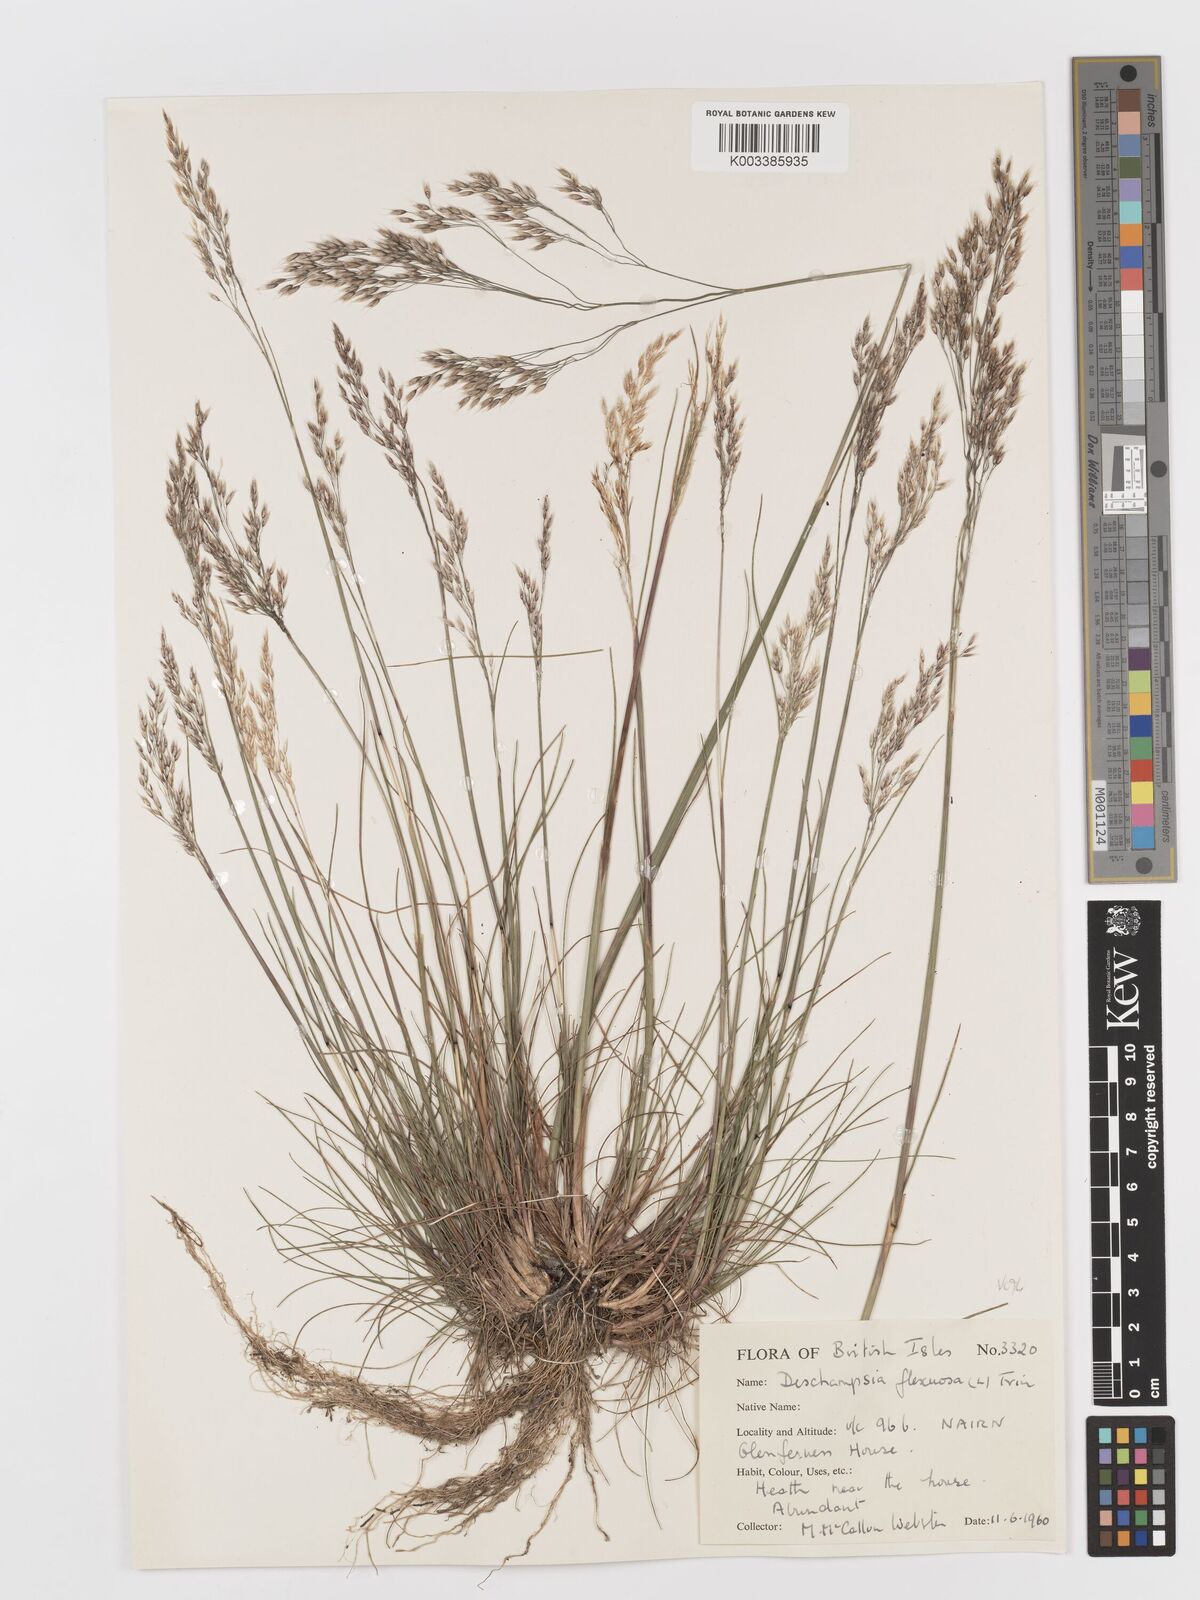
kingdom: Plantae
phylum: Tracheophyta
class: Liliopsida
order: Poales
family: Poaceae
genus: Avenella
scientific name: Avenella flexuosa
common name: Wavy hairgrass
